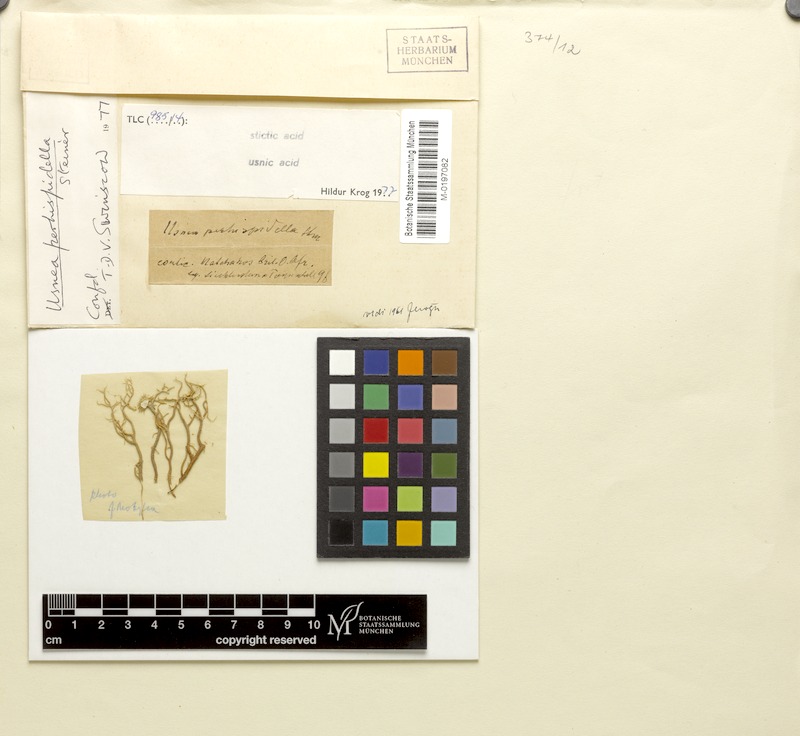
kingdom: Fungi
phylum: Ascomycota
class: Lecanoromycetes
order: Lecanorales
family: Parmeliaceae
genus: Usnea
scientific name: Usnea perhispidella
